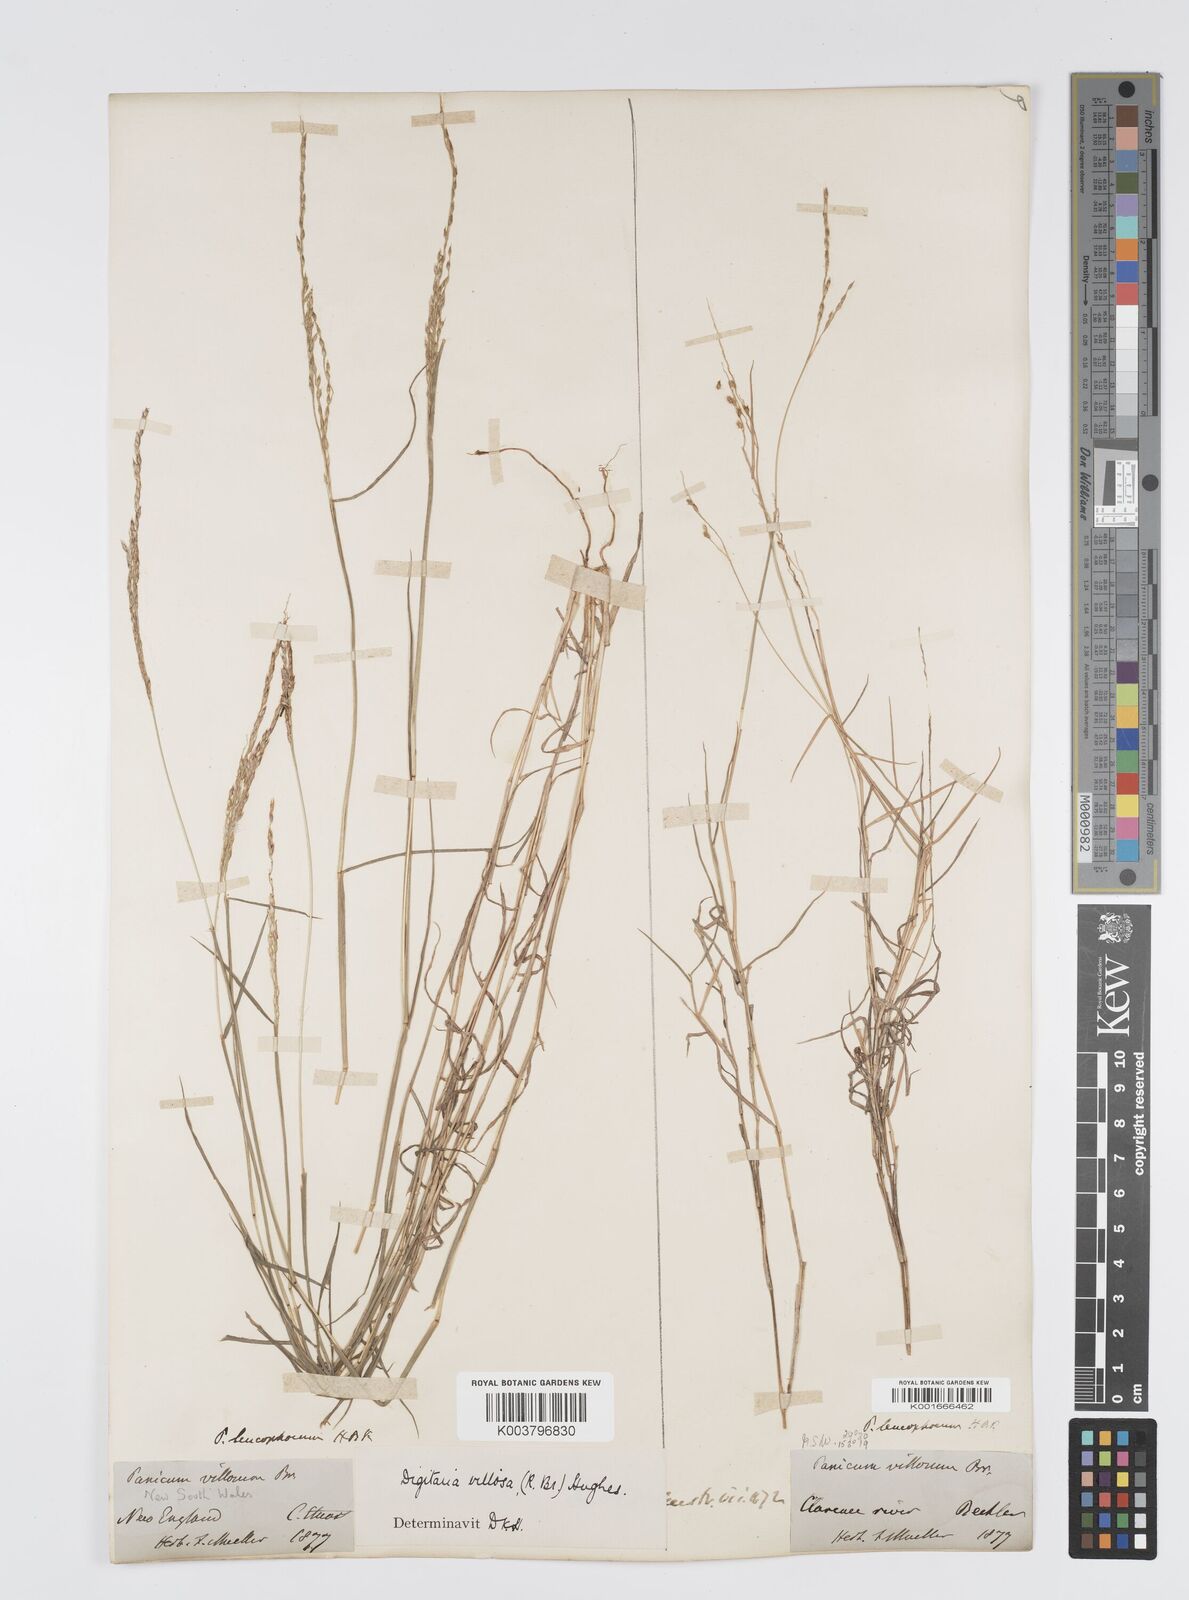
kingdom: Plantae
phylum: Tracheophyta
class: Liliopsida
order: Poales
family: Poaceae
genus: Digitaria
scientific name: Digitaria brownii
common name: Cotton grass
